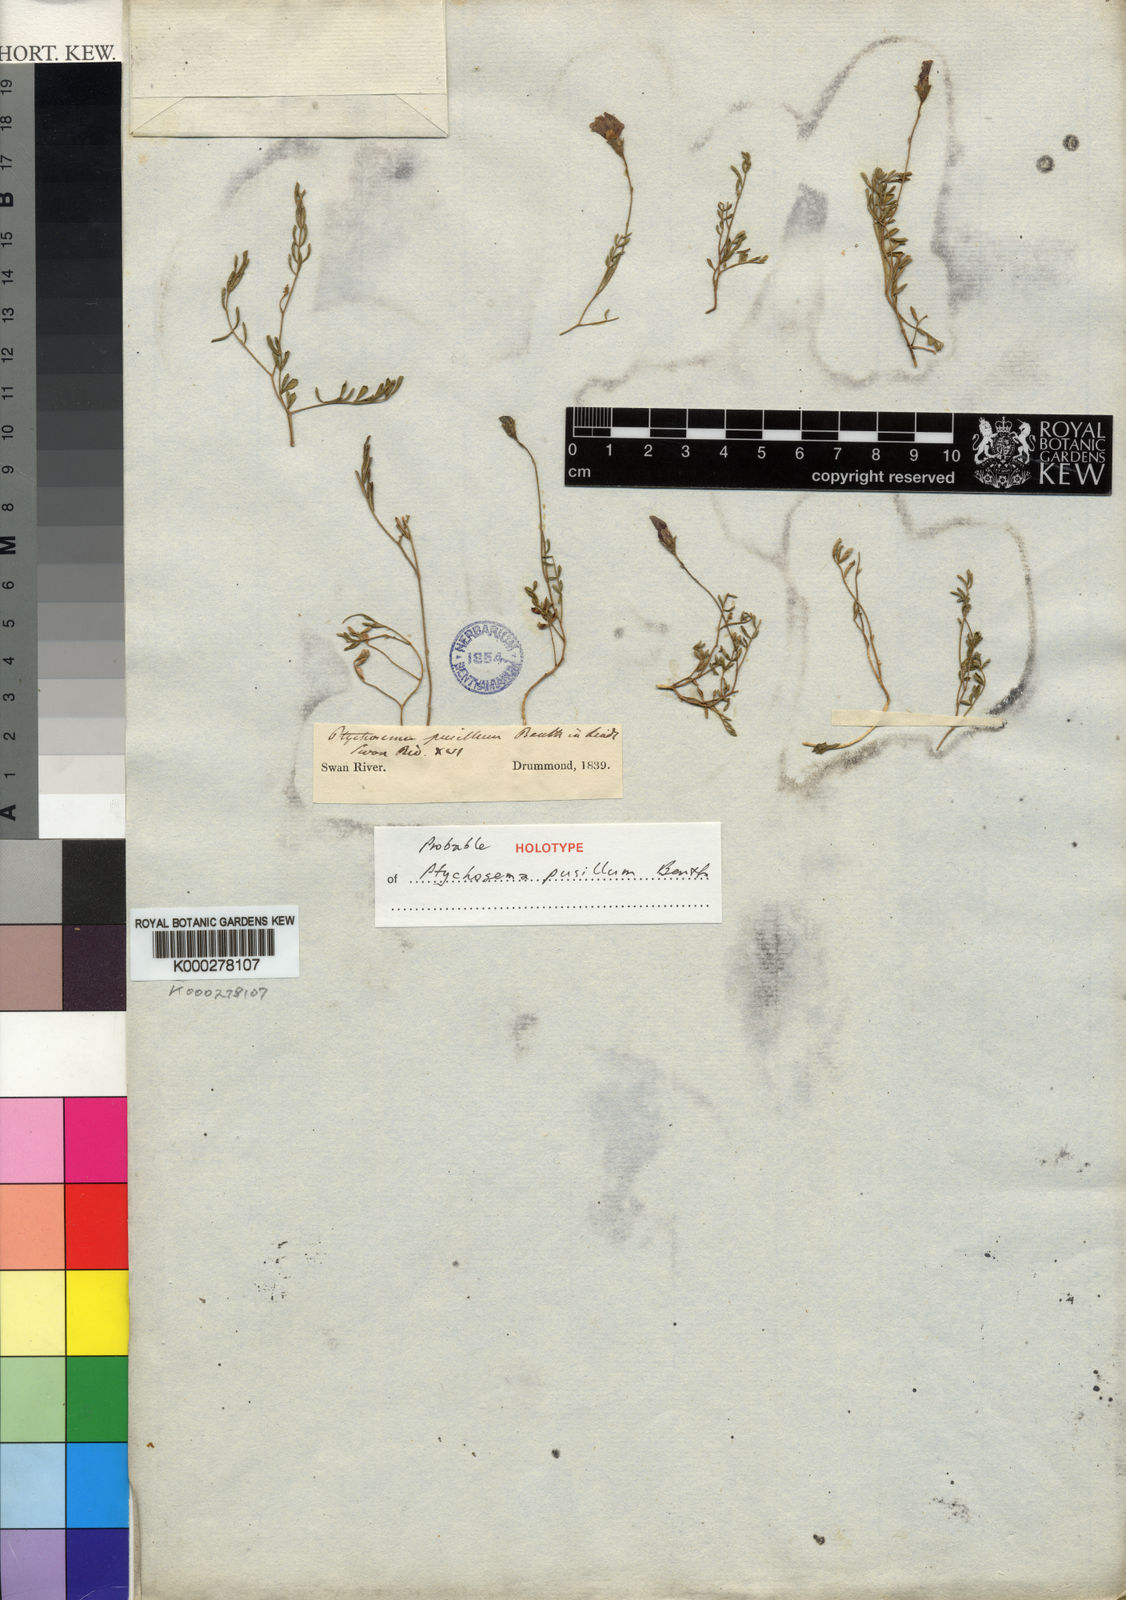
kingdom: Plantae
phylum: Tracheophyta
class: Magnoliopsida
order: Fabales
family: Fabaceae
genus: Ptychosema
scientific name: Ptychosema pusillum
